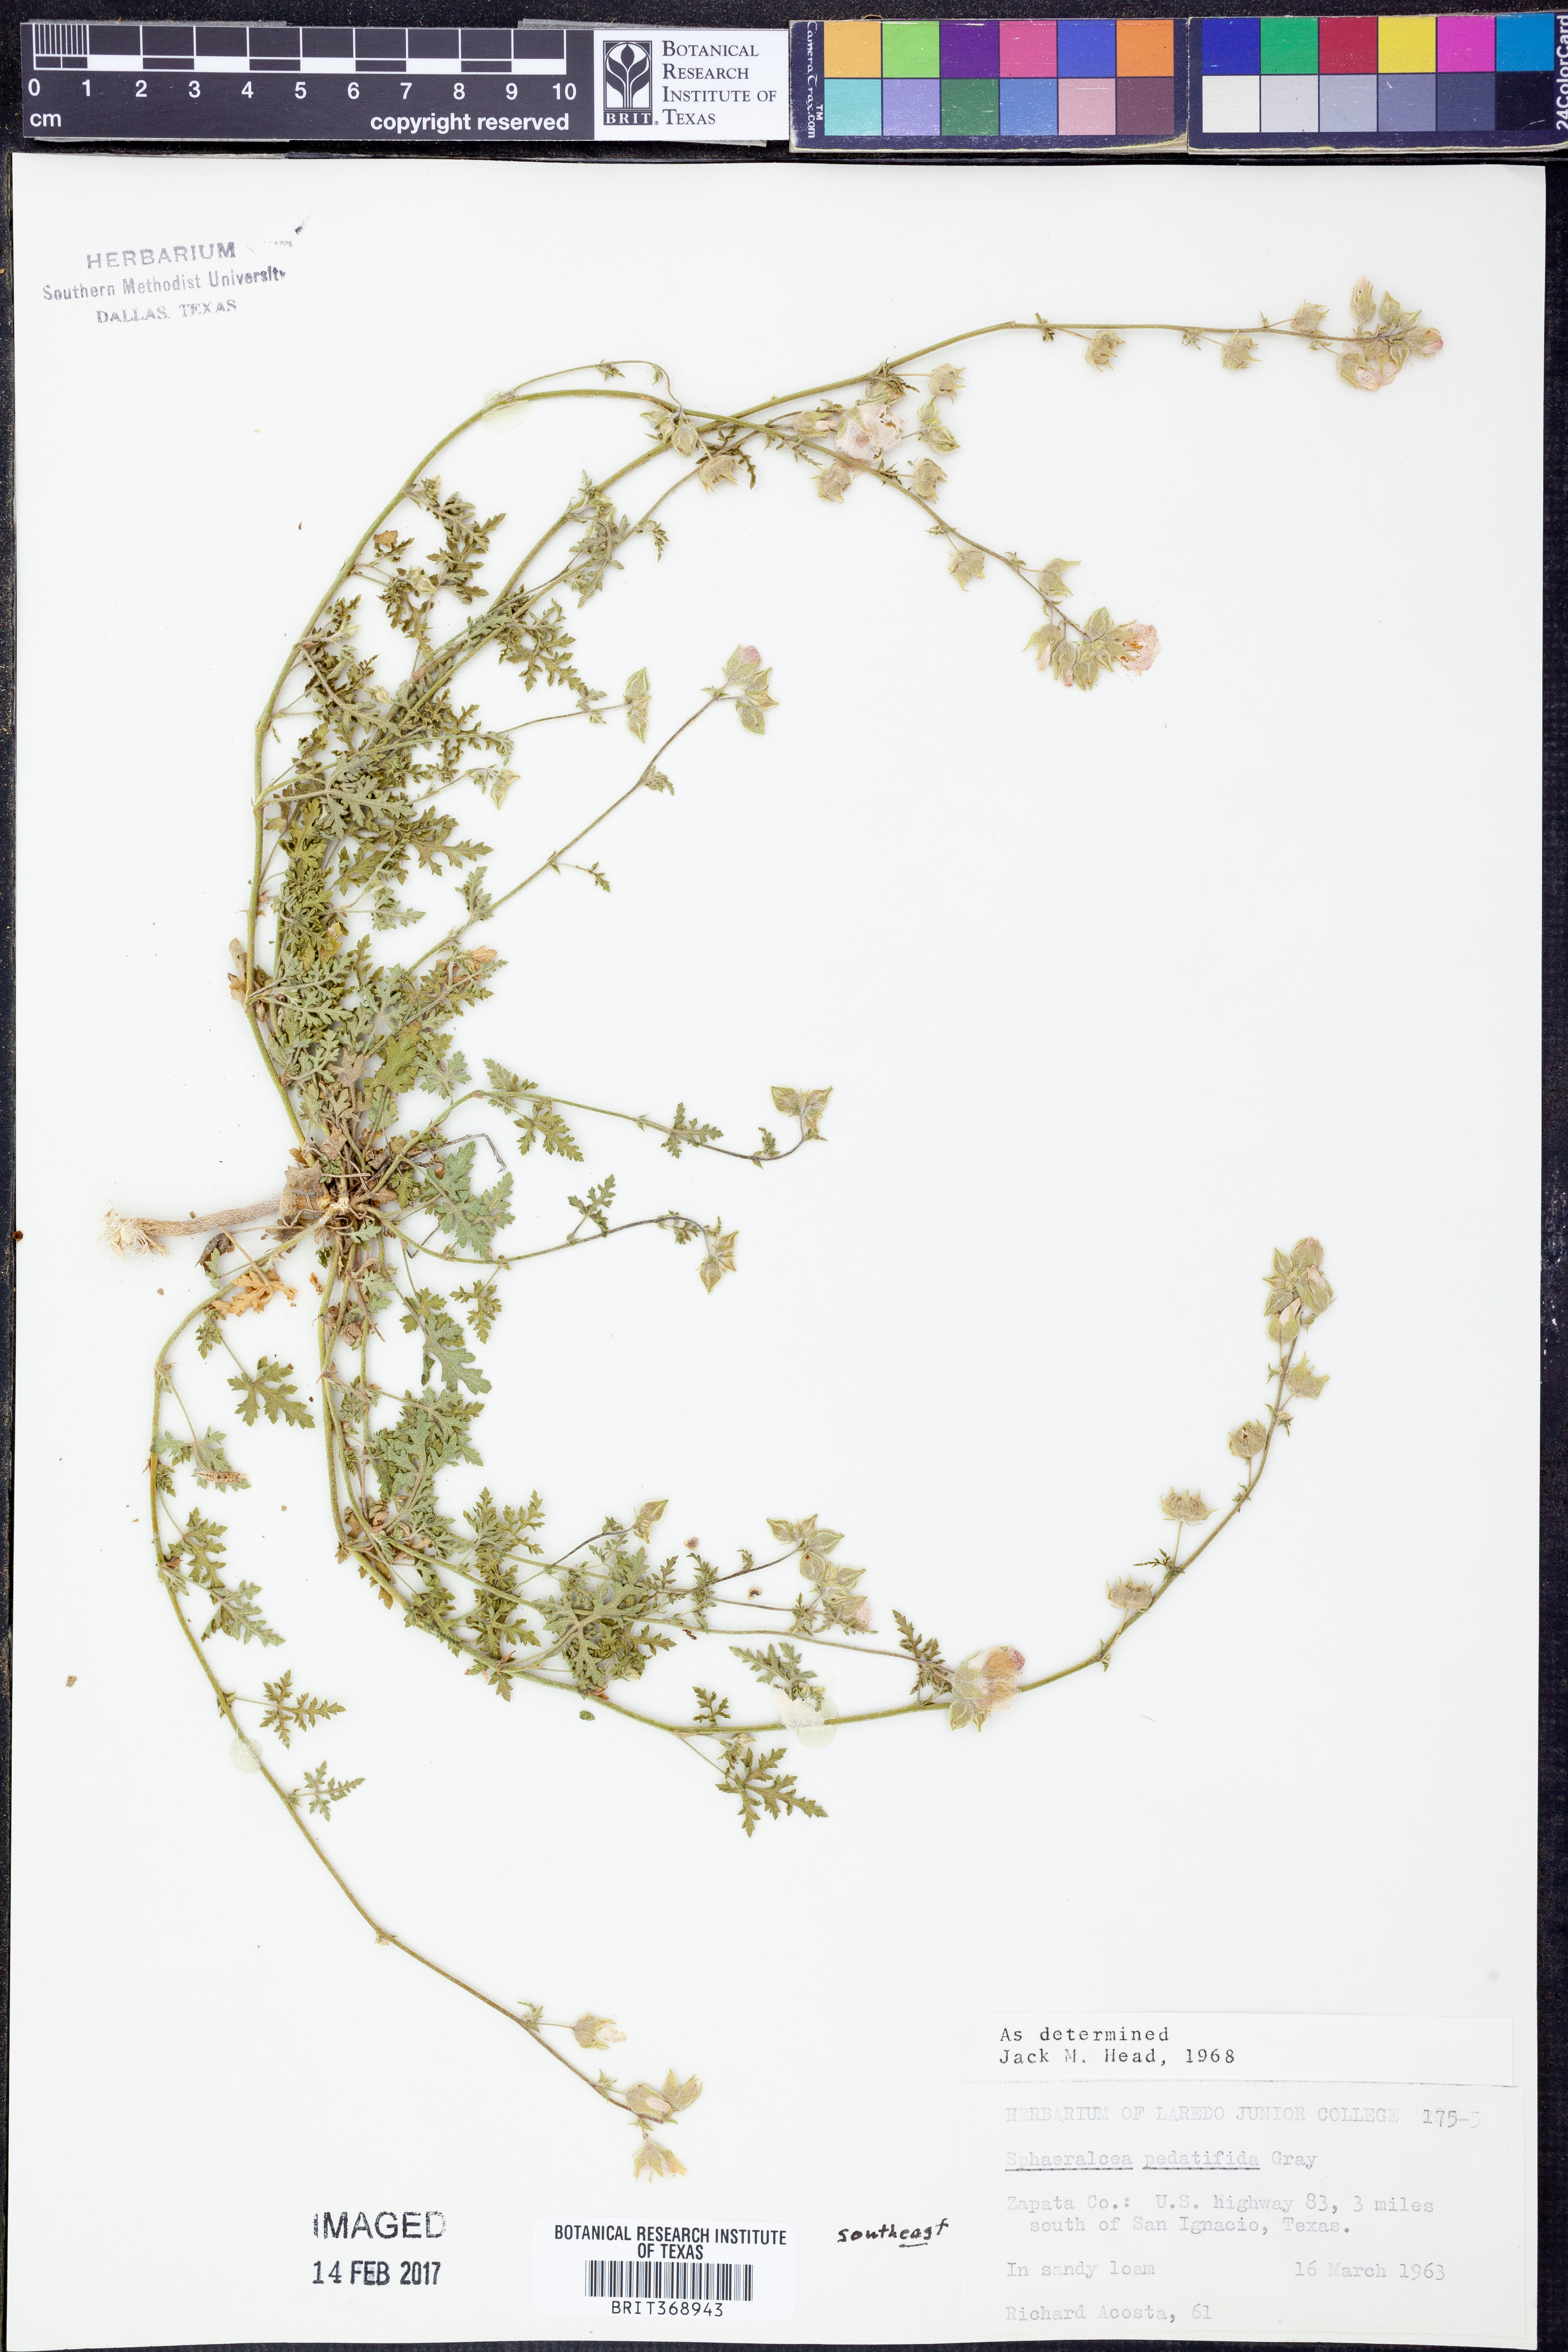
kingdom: Plantae
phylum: Tracheophyta
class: Magnoliopsida
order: Malvales
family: Malvaceae
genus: Sphaeralcea
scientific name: Sphaeralcea pedatifida
